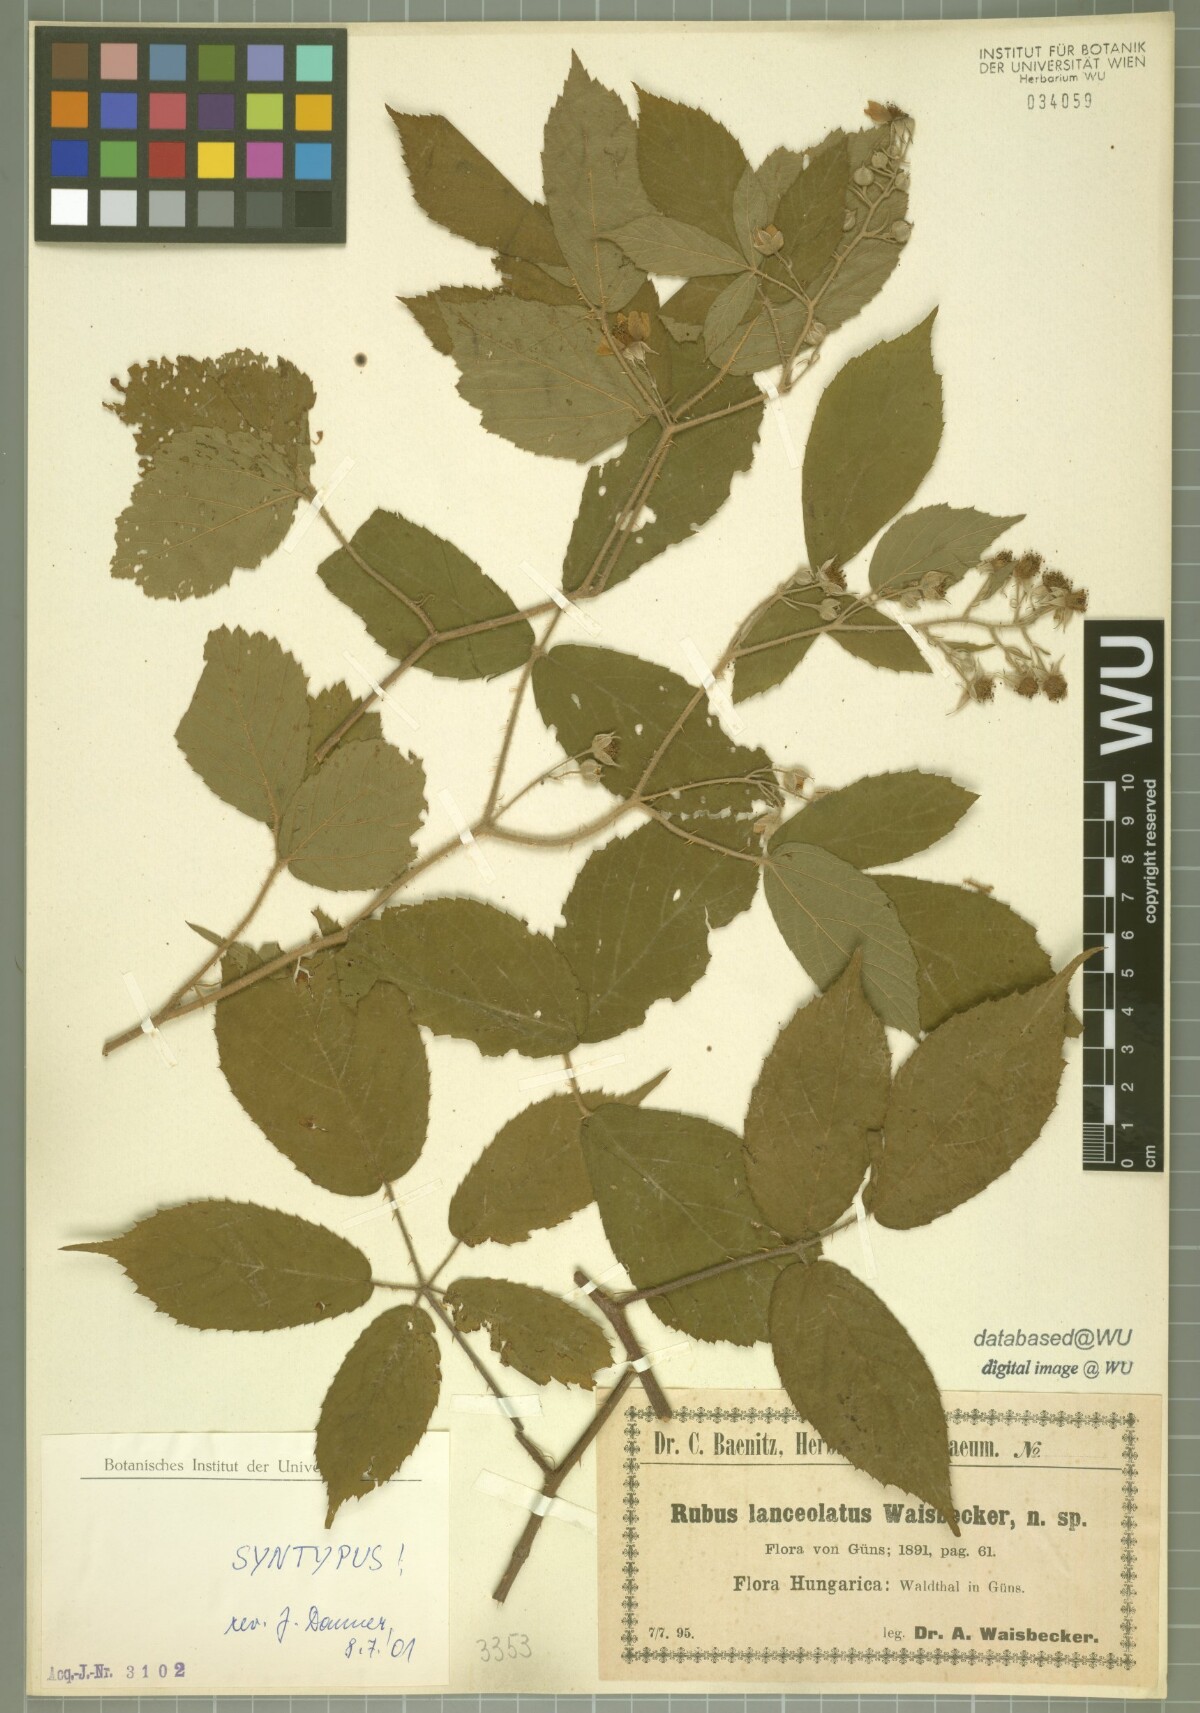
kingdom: Plantae
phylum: Tracheophyta
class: Magnoliopsida
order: Rosales
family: Rosaceae
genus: Rubus
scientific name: Rubus lanceolatus
